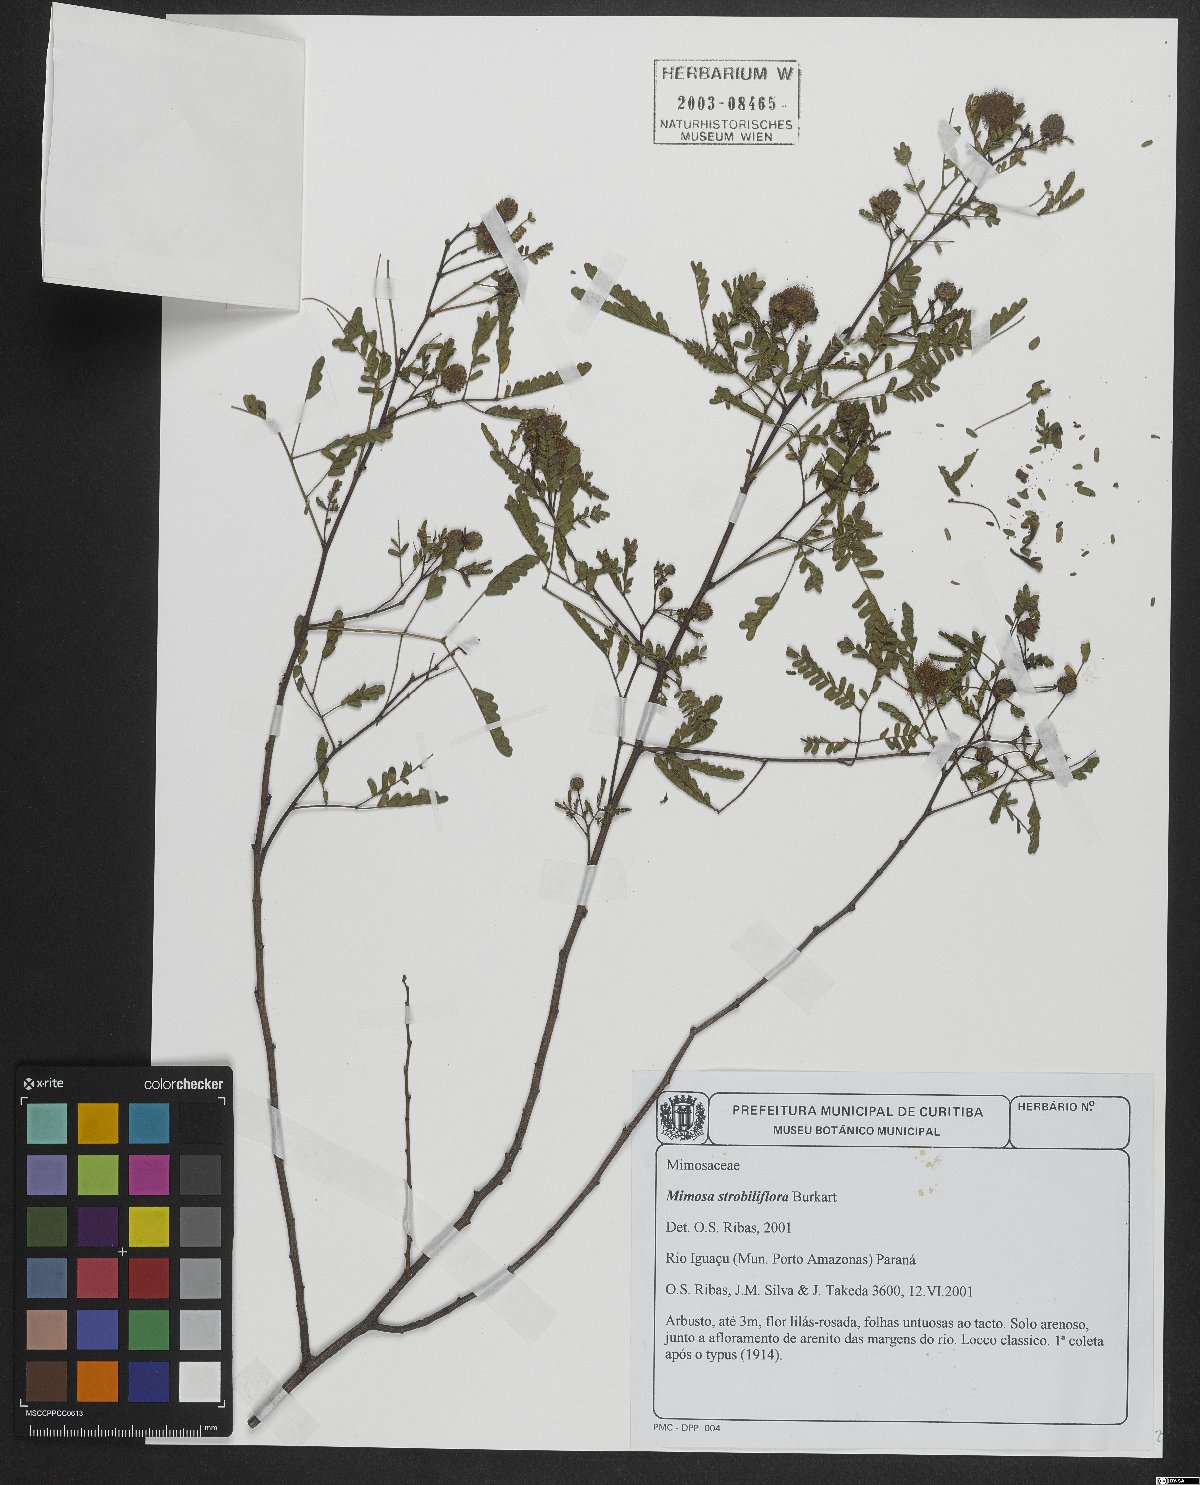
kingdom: Plantae
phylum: Tracheophyta
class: Magnoliopsida
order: Fabales
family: Fabaceae
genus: Mimosa
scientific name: Mimosa strobiliflora
